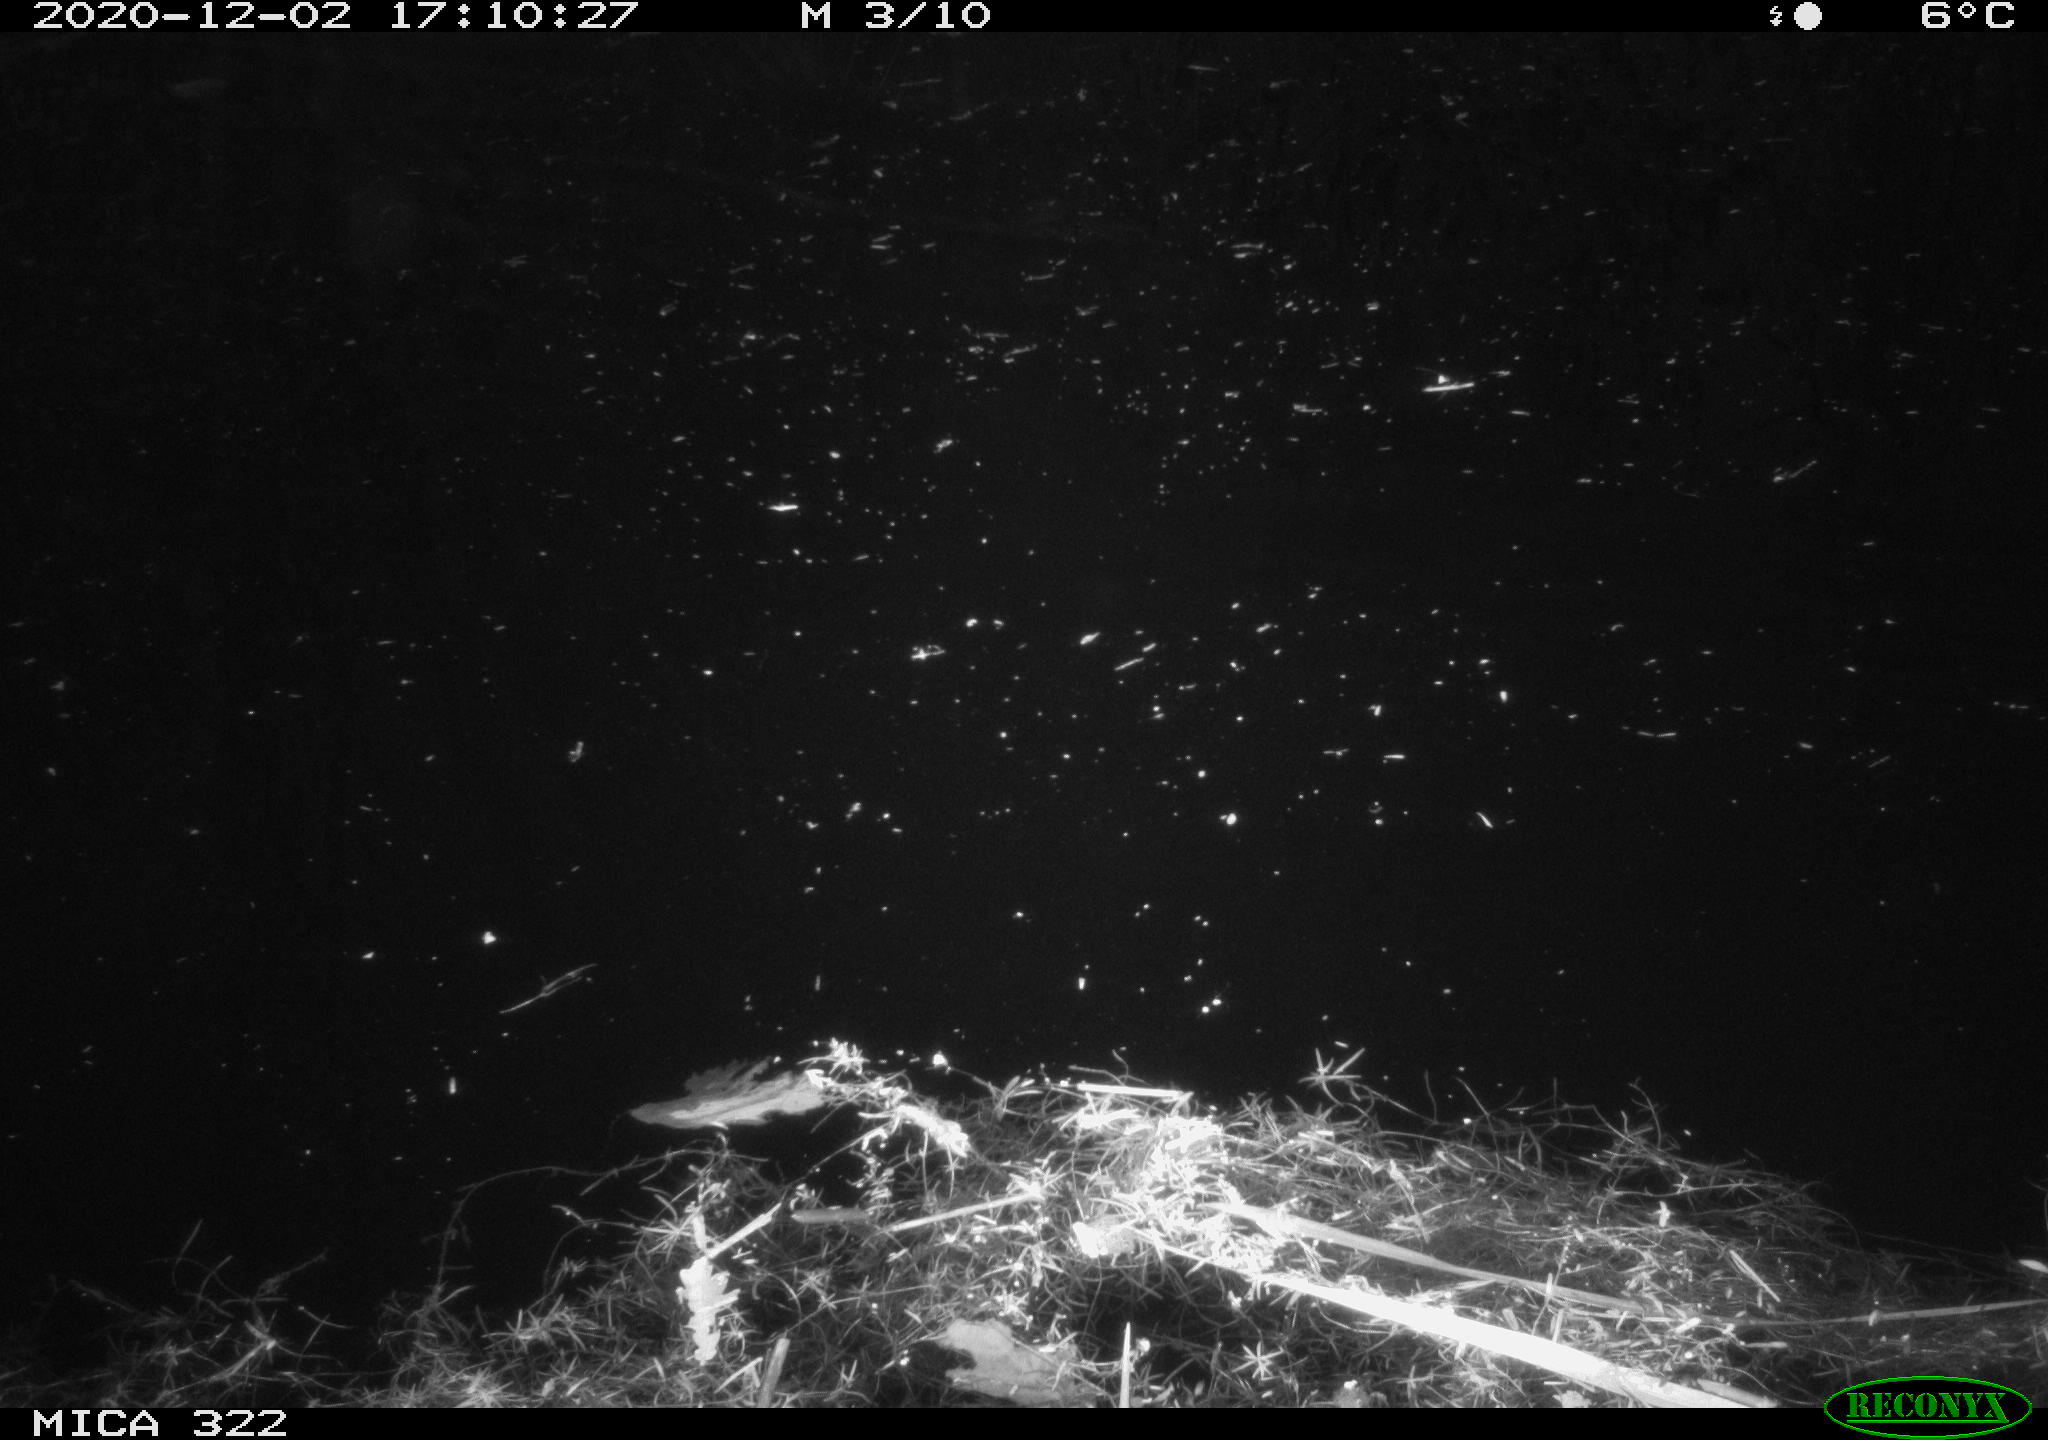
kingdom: Animalia
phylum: Chordata
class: Aves
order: Gruiformes
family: Rallidae
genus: Gallinula
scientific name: Gallinula chloropus
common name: Common moorhen
